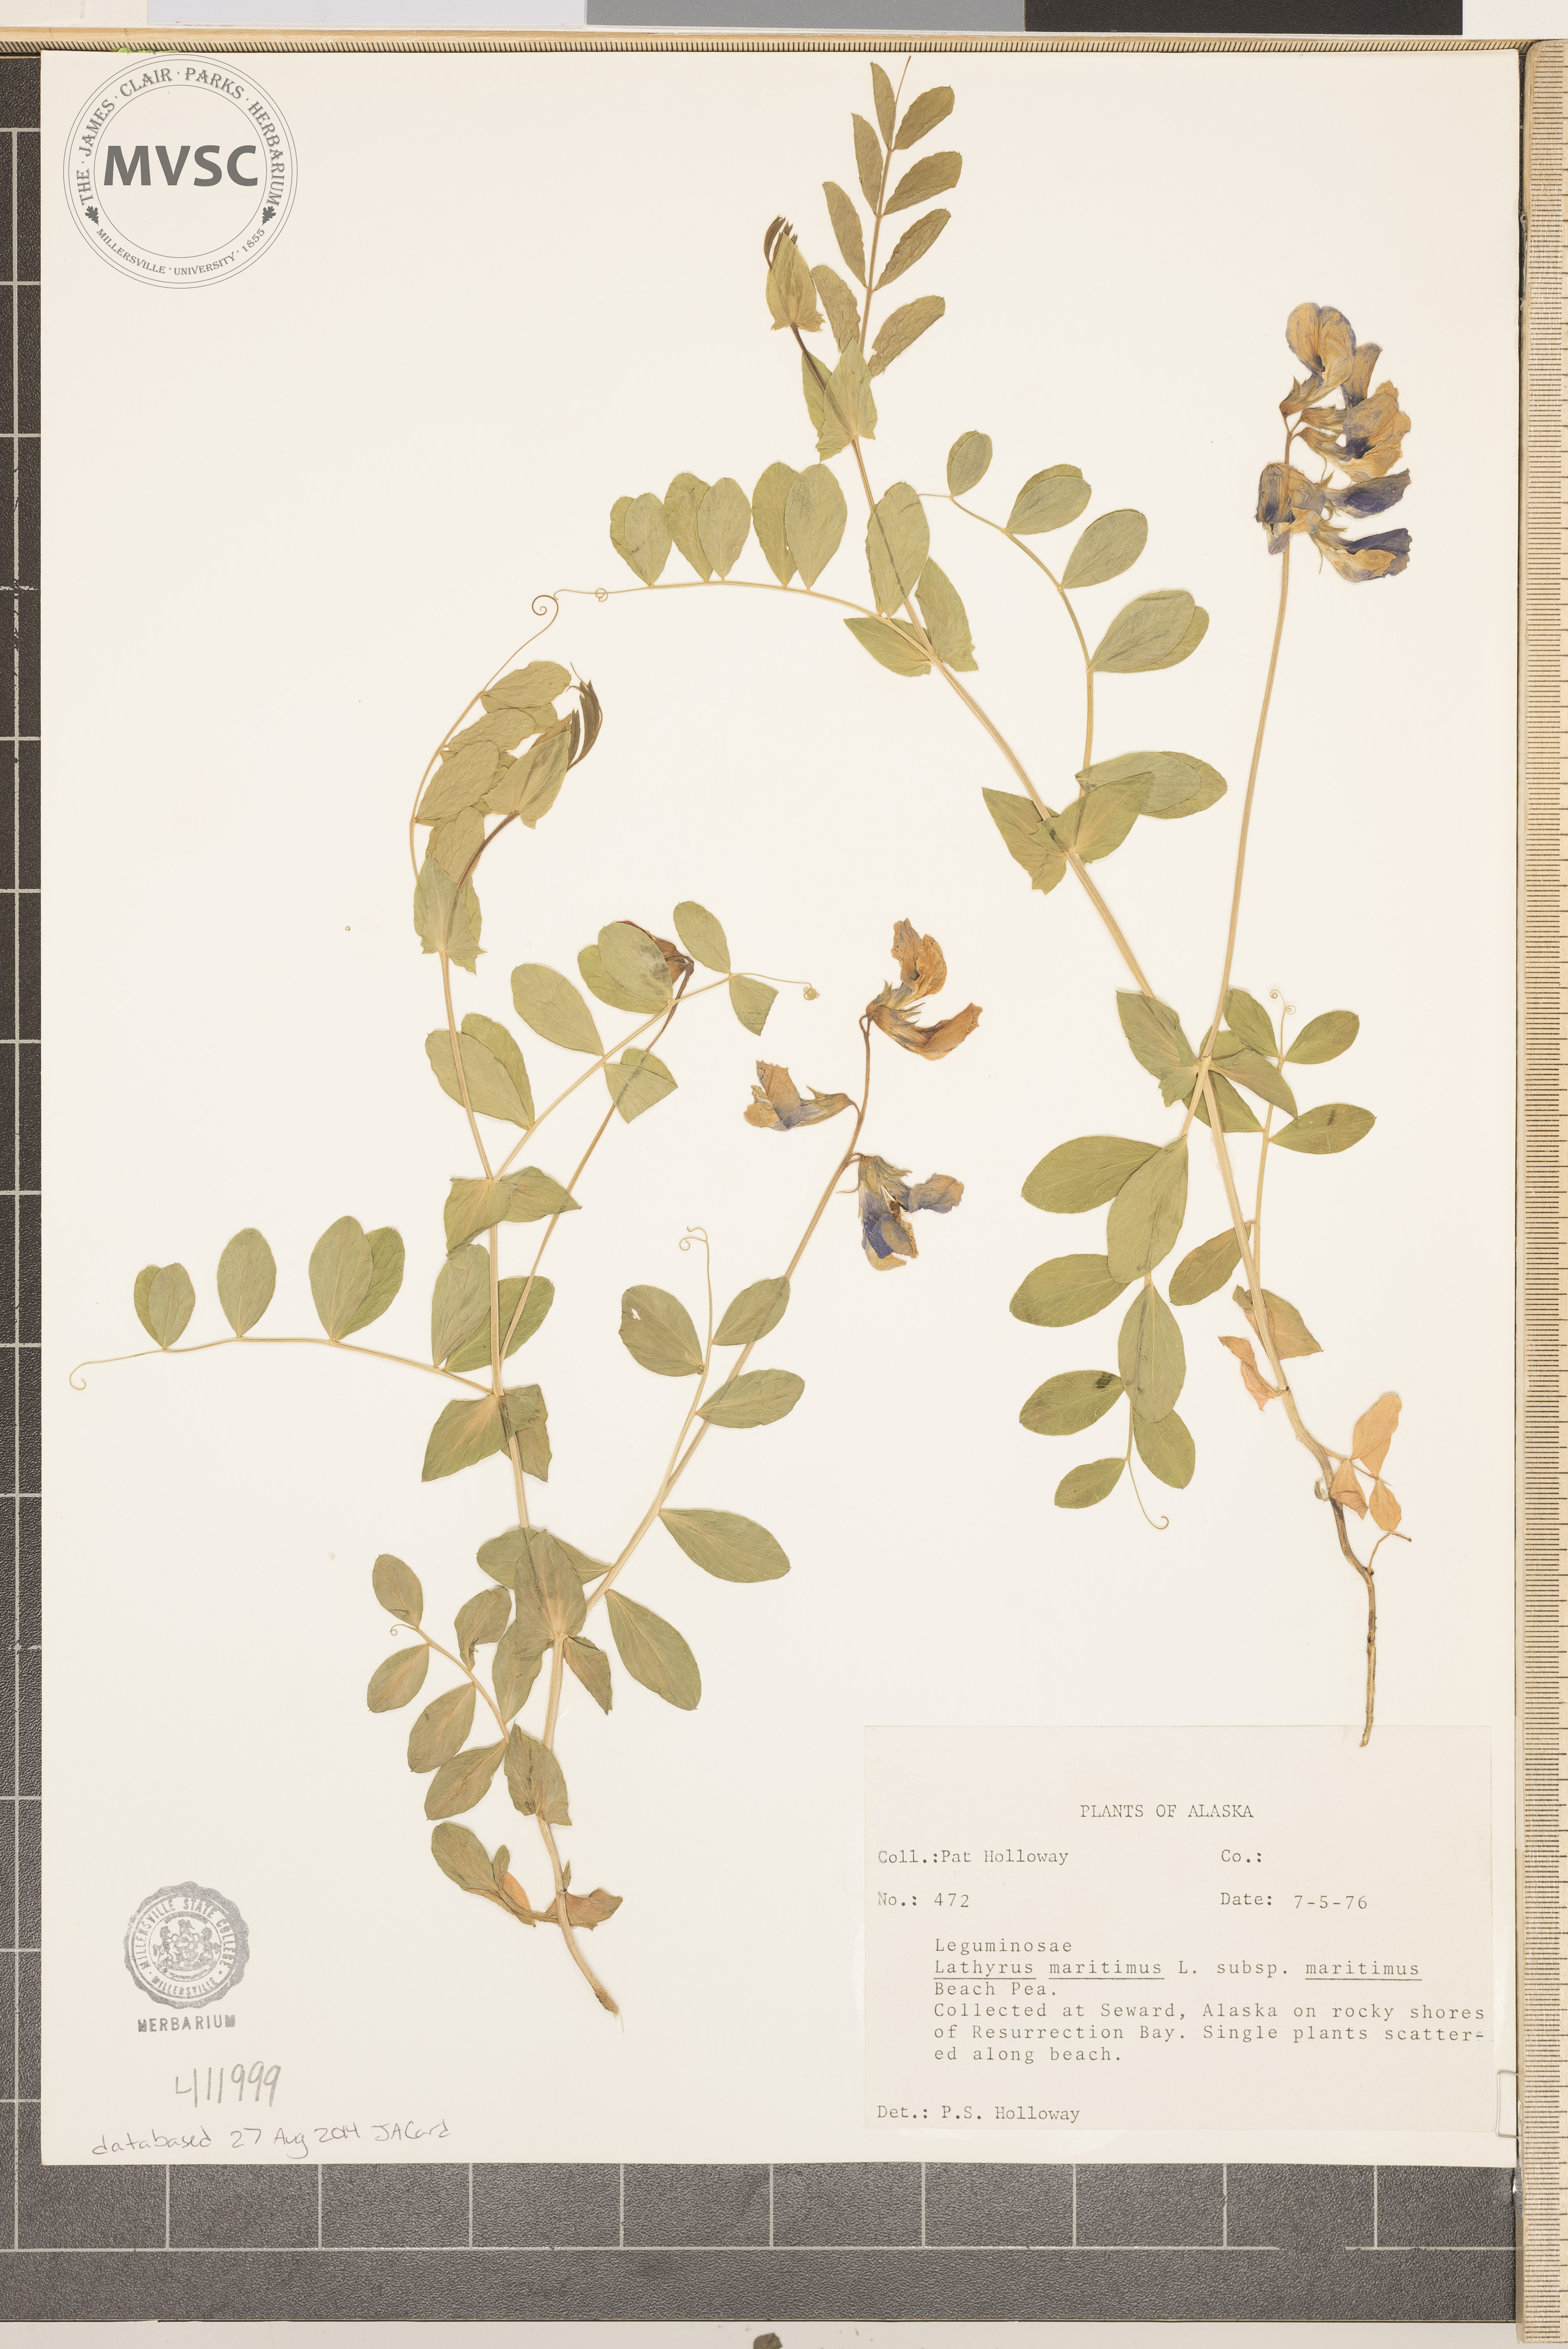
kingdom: Plantae
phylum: Tracheophyta
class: Magnoliopsida
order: Fabales
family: Fabaceae
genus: Lathyrus
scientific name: Lathyrus
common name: Beach Pea
